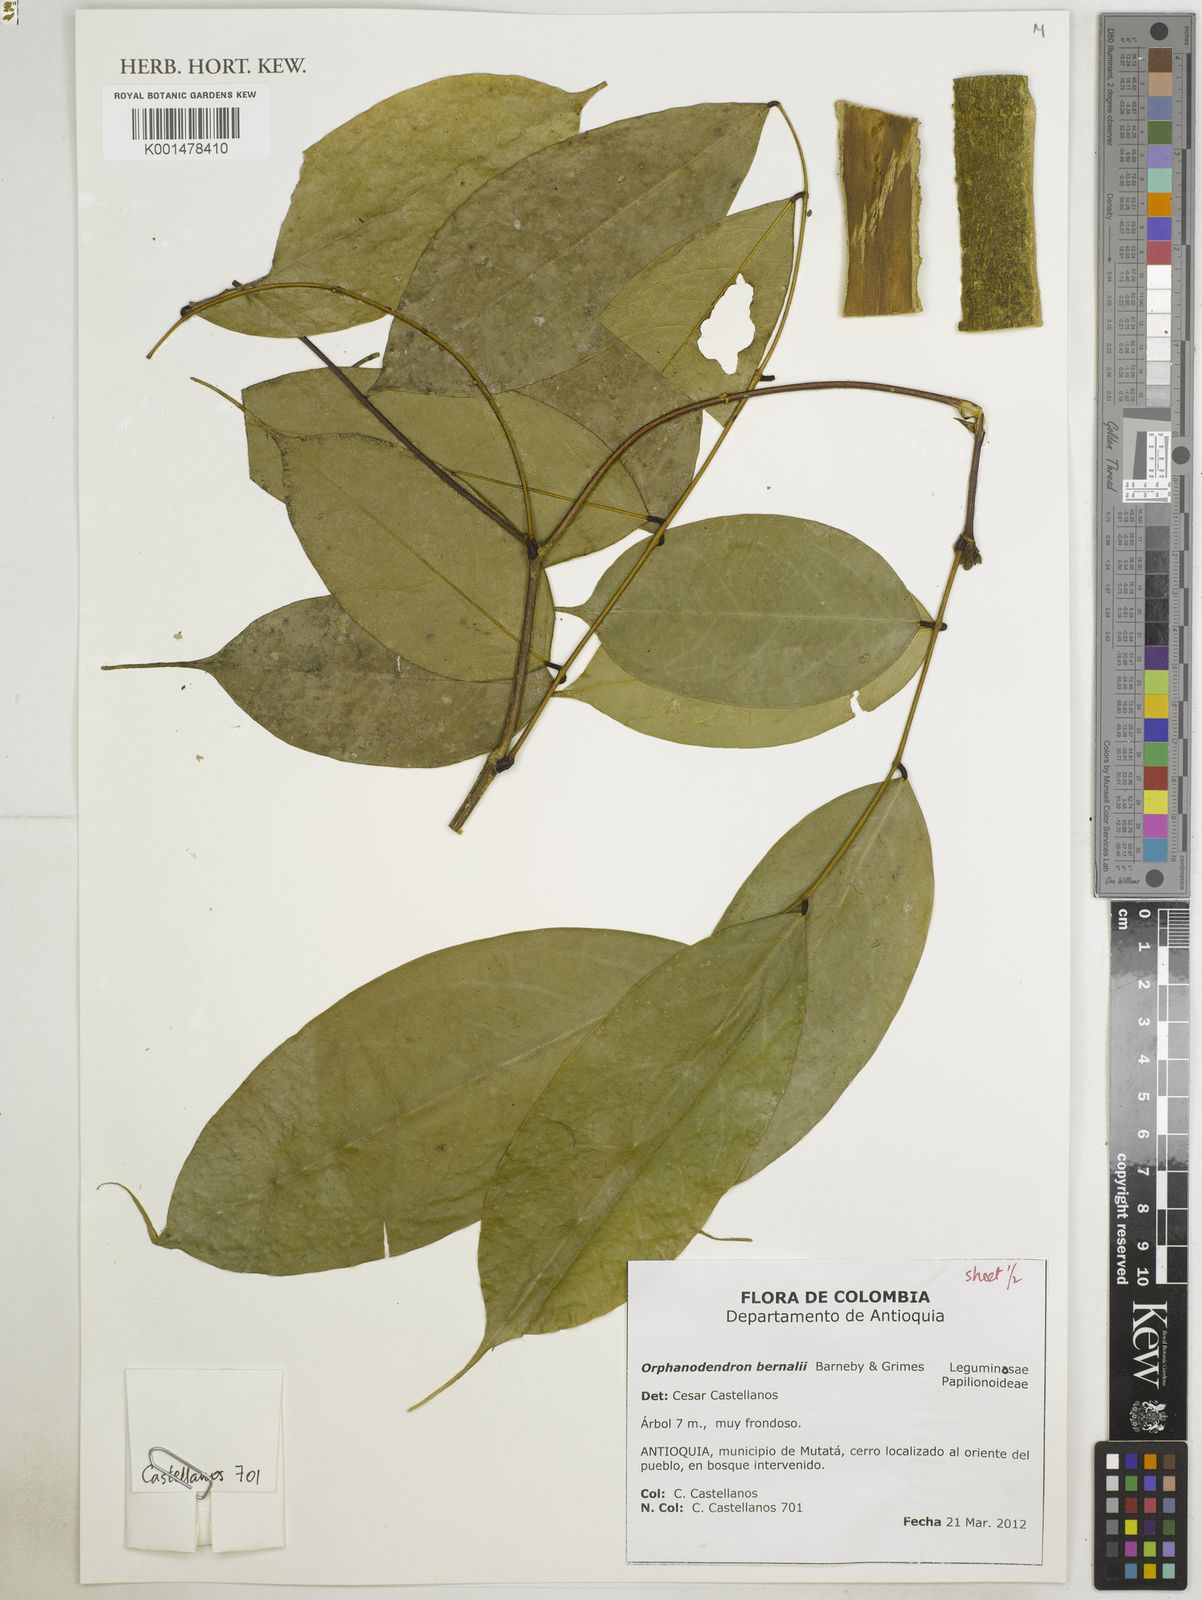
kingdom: Plantae
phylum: Tracheophyta
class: Magnoliopsida
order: Fabales
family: Fabaceae
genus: Orphanodendron
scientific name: Orphanodendron bernalii
